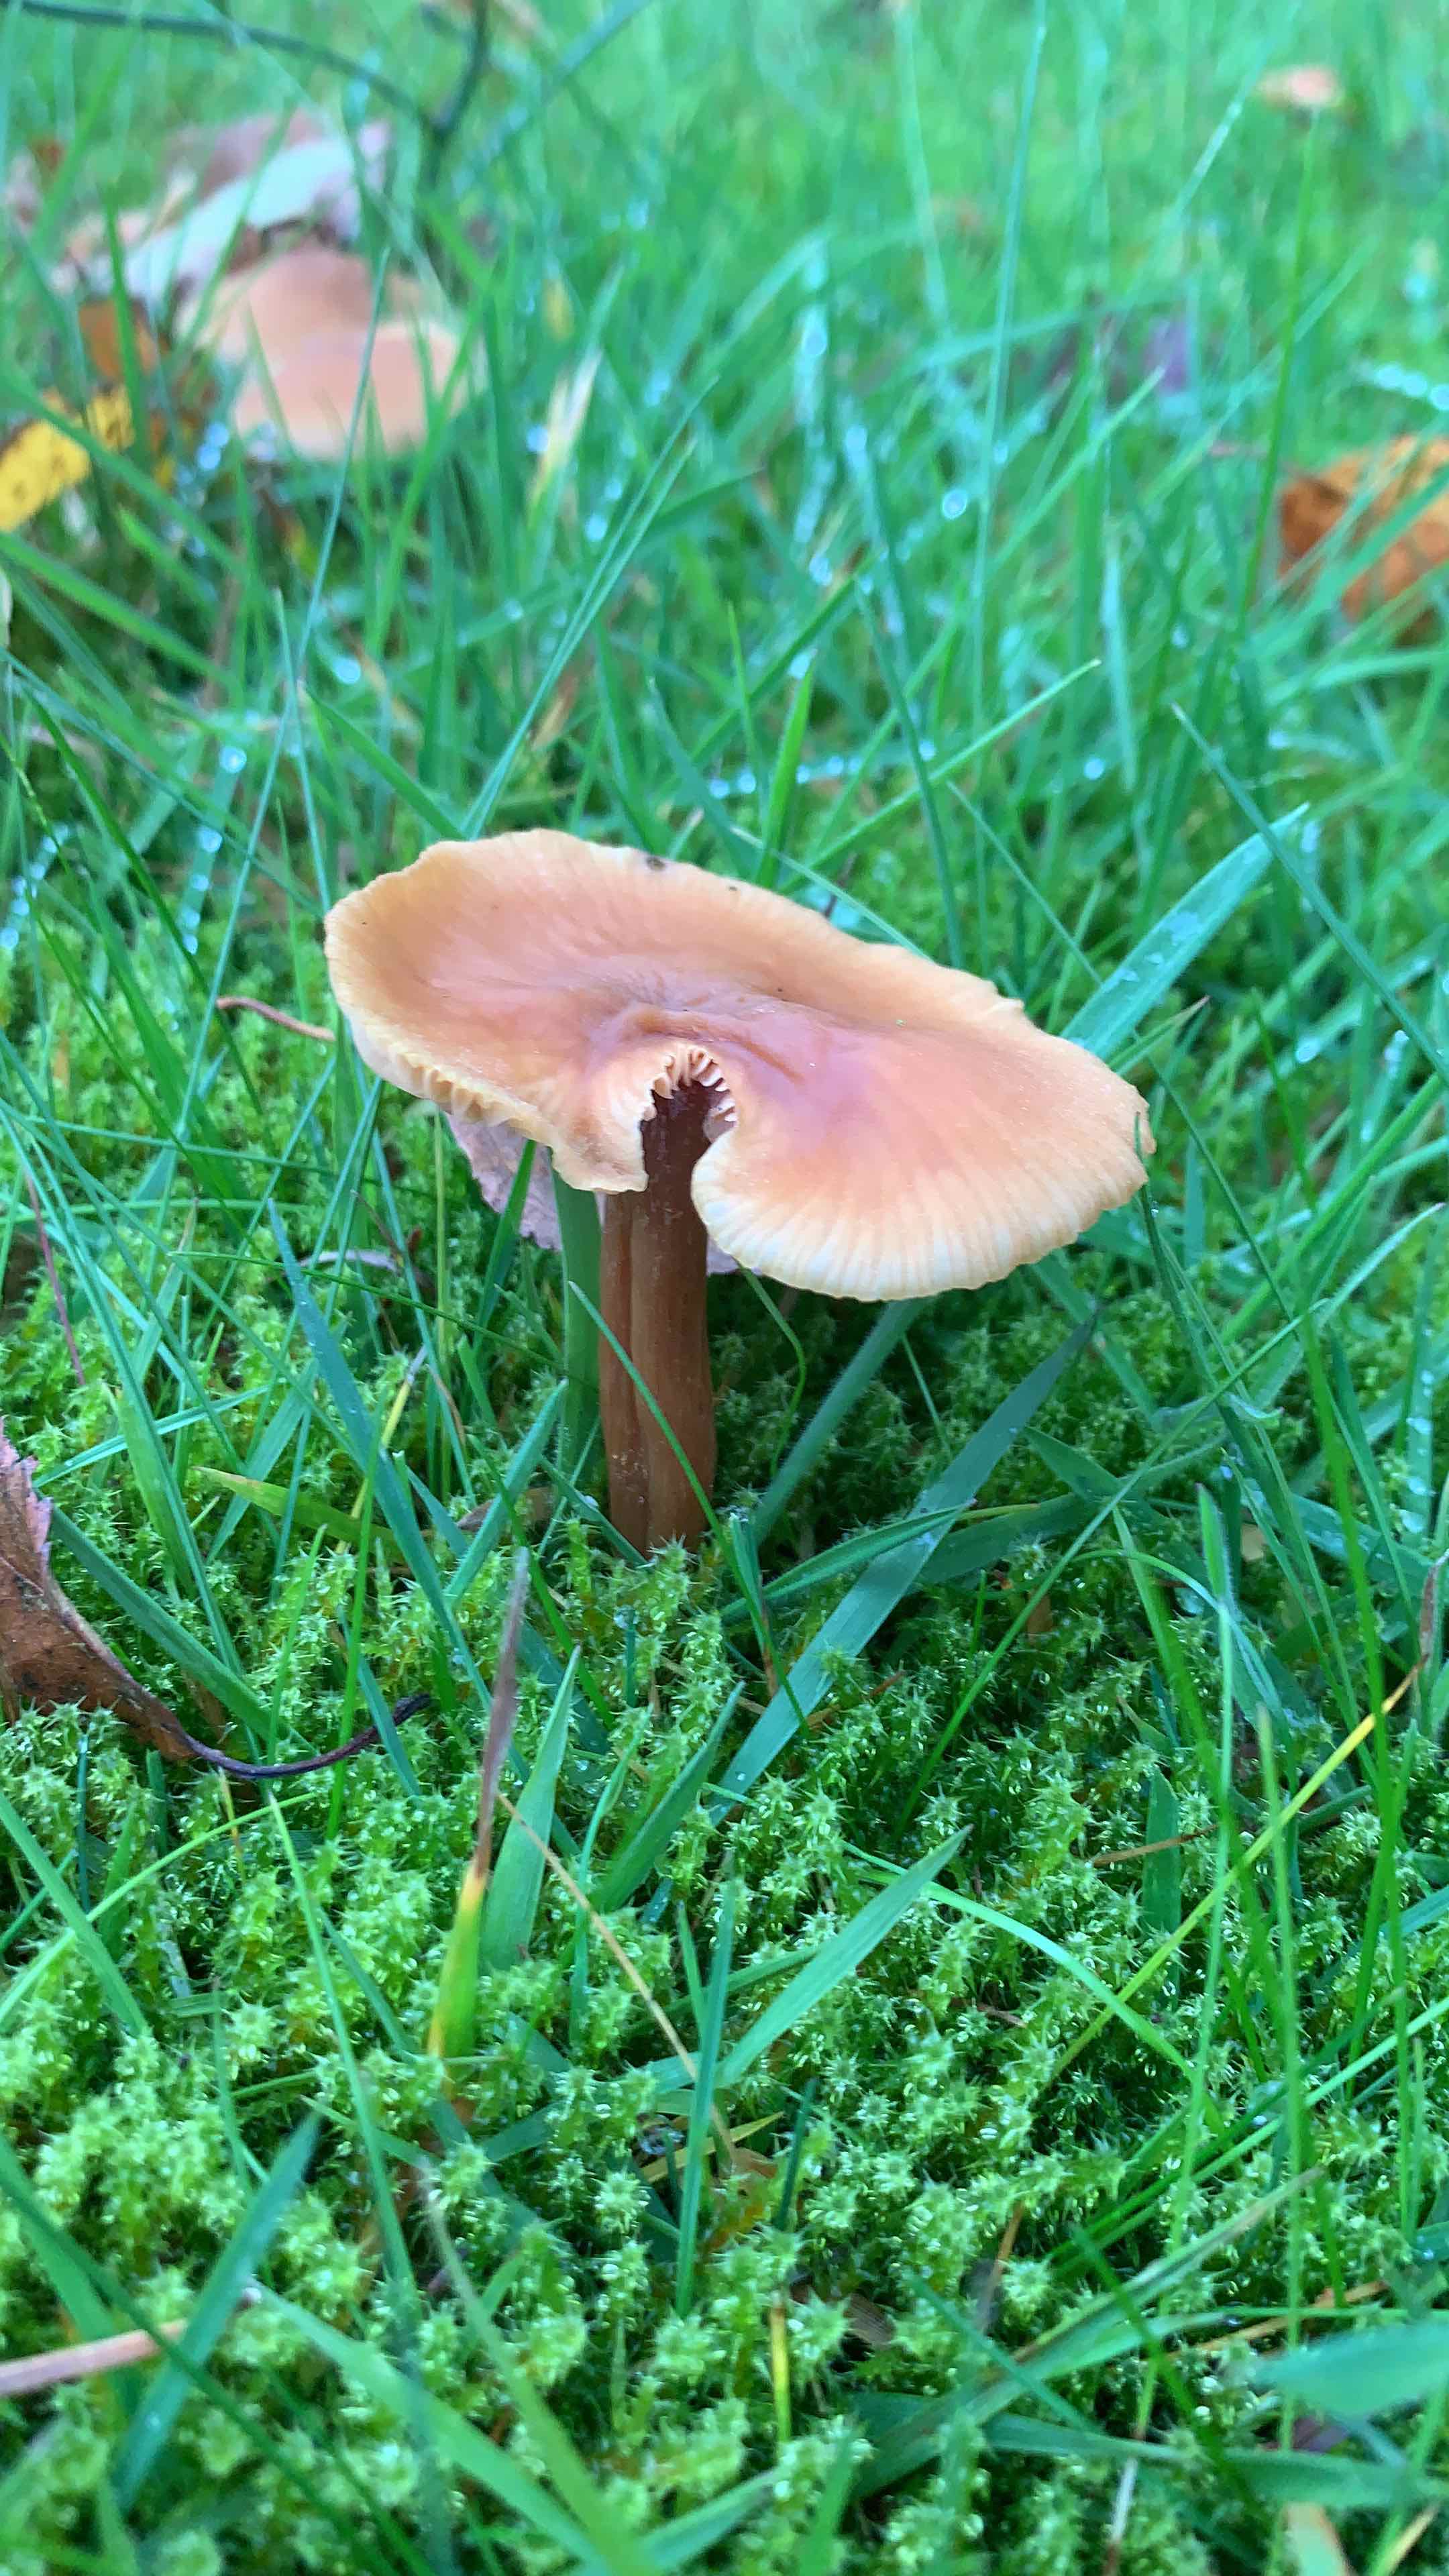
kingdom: Fungi
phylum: Basidiomycota
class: Agaricomycetes
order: Agaricales
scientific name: Agaricales
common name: champignonordenen
